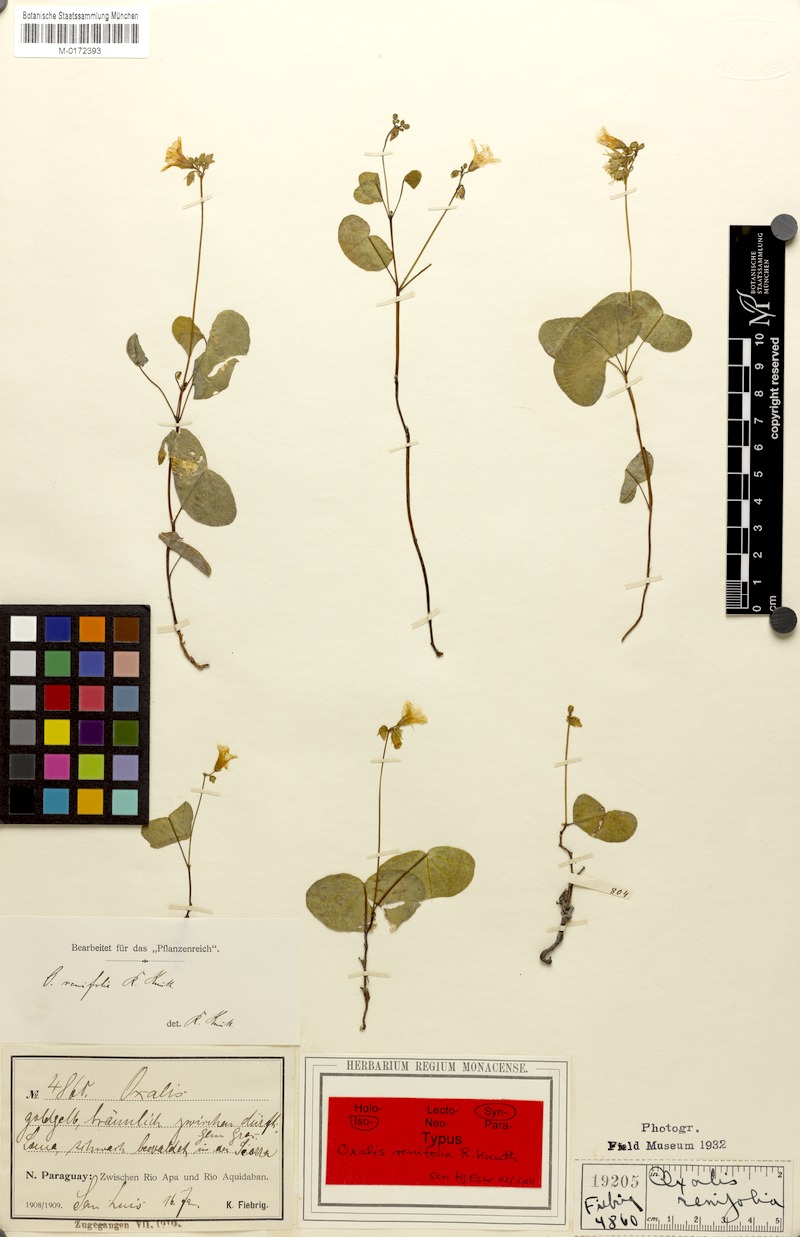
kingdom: Plantae
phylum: Tracheophyta
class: Magnoliopsida
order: Oxalidales
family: Oxalidaceae
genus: Oxalis
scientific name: Oxalis renifolia
